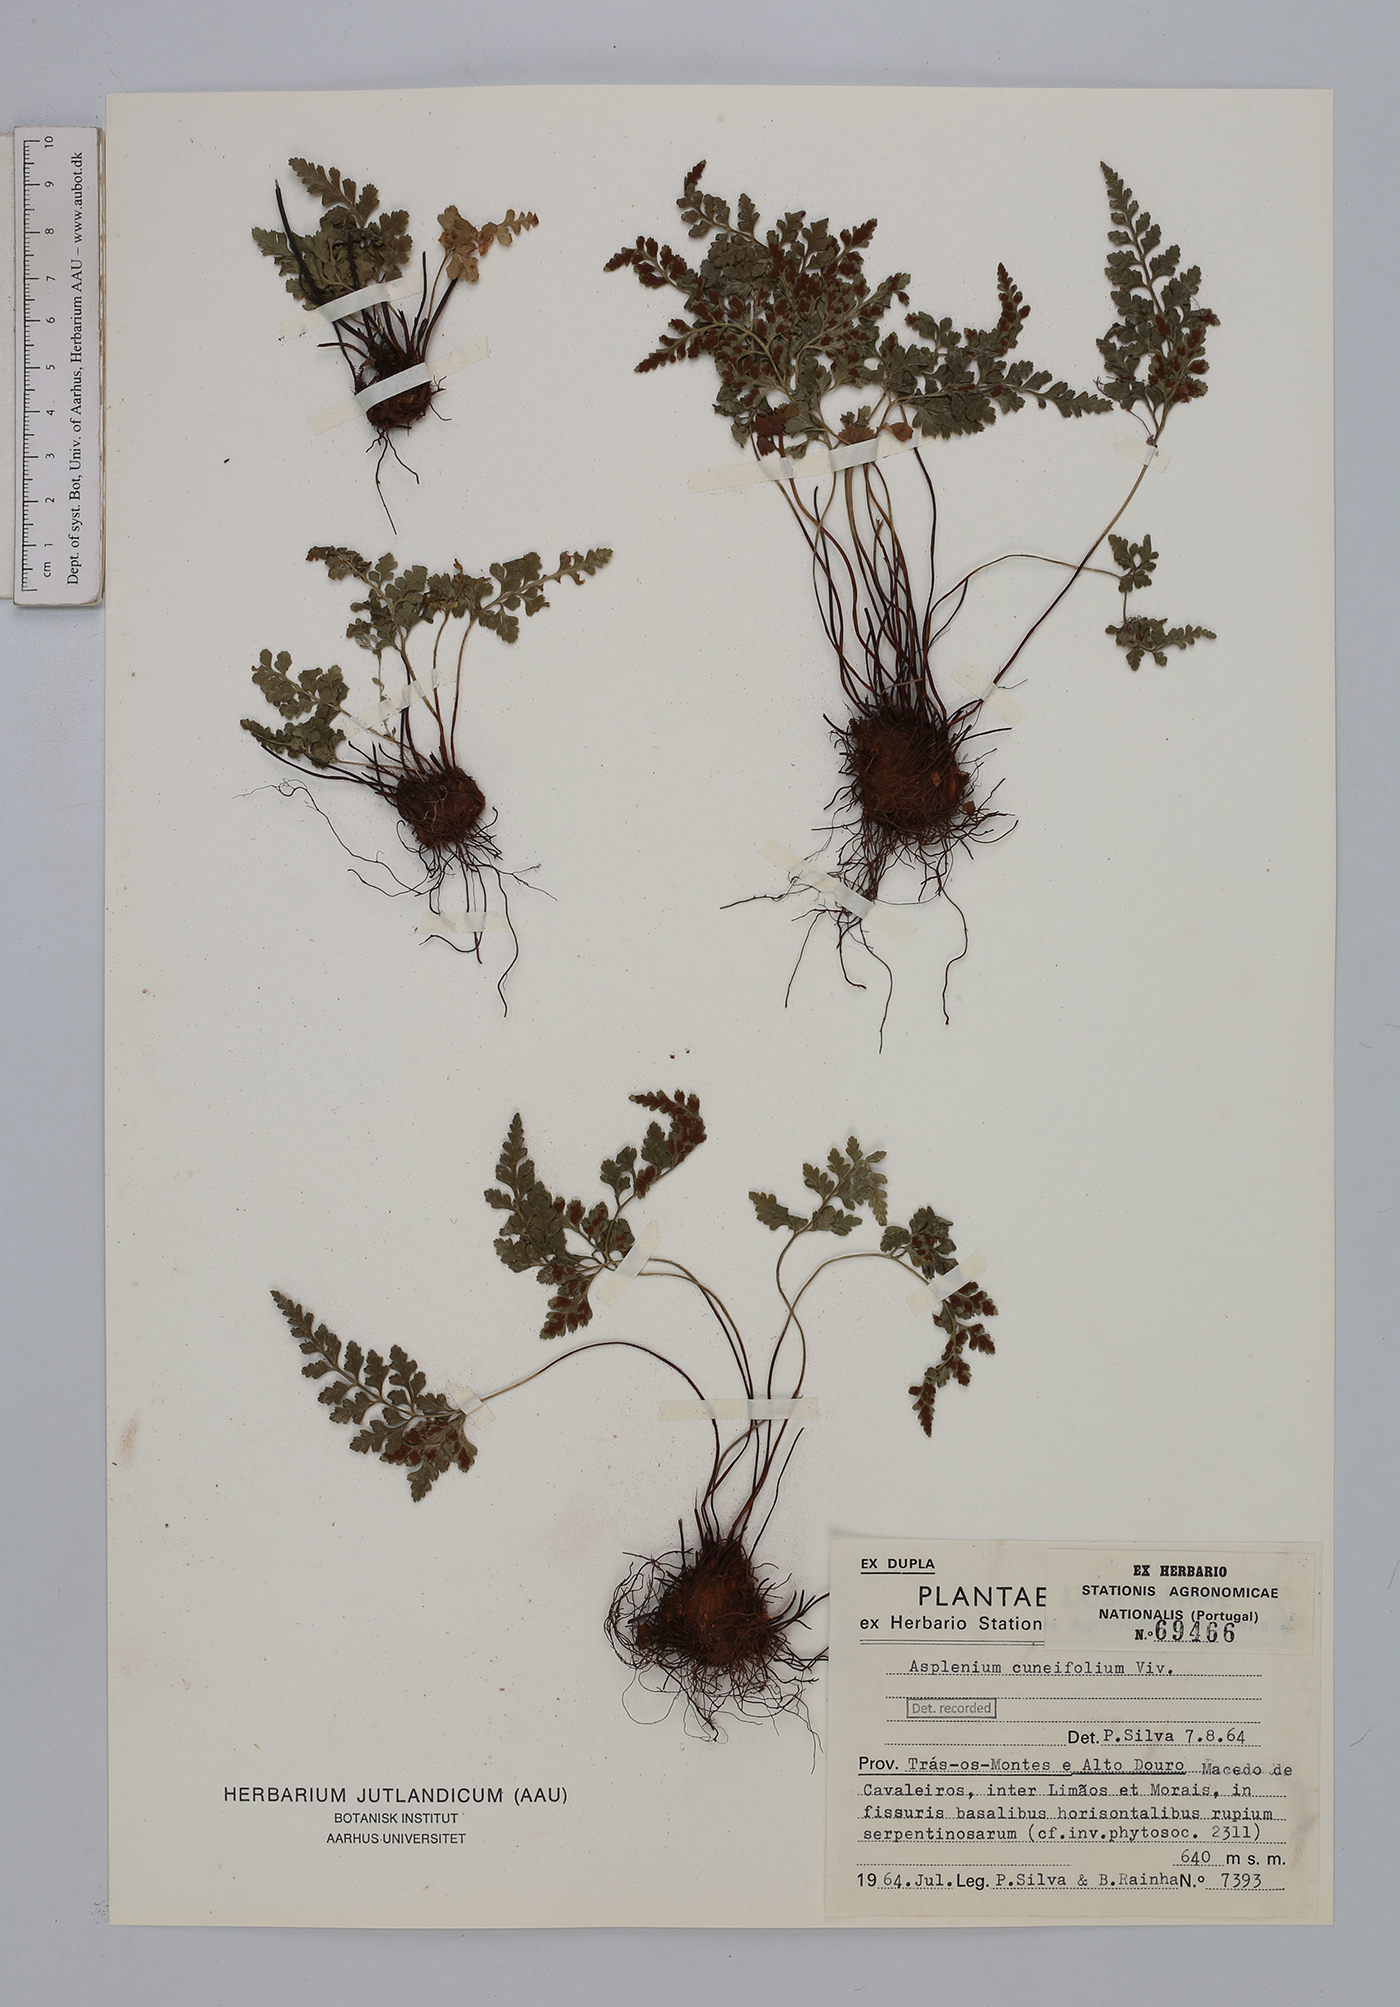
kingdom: Plantae
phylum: Tracheophyta
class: Polypodiopsida
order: Polypodiales
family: Aspleniaceae
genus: Asplenium
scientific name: Asplenium cuneifolium
